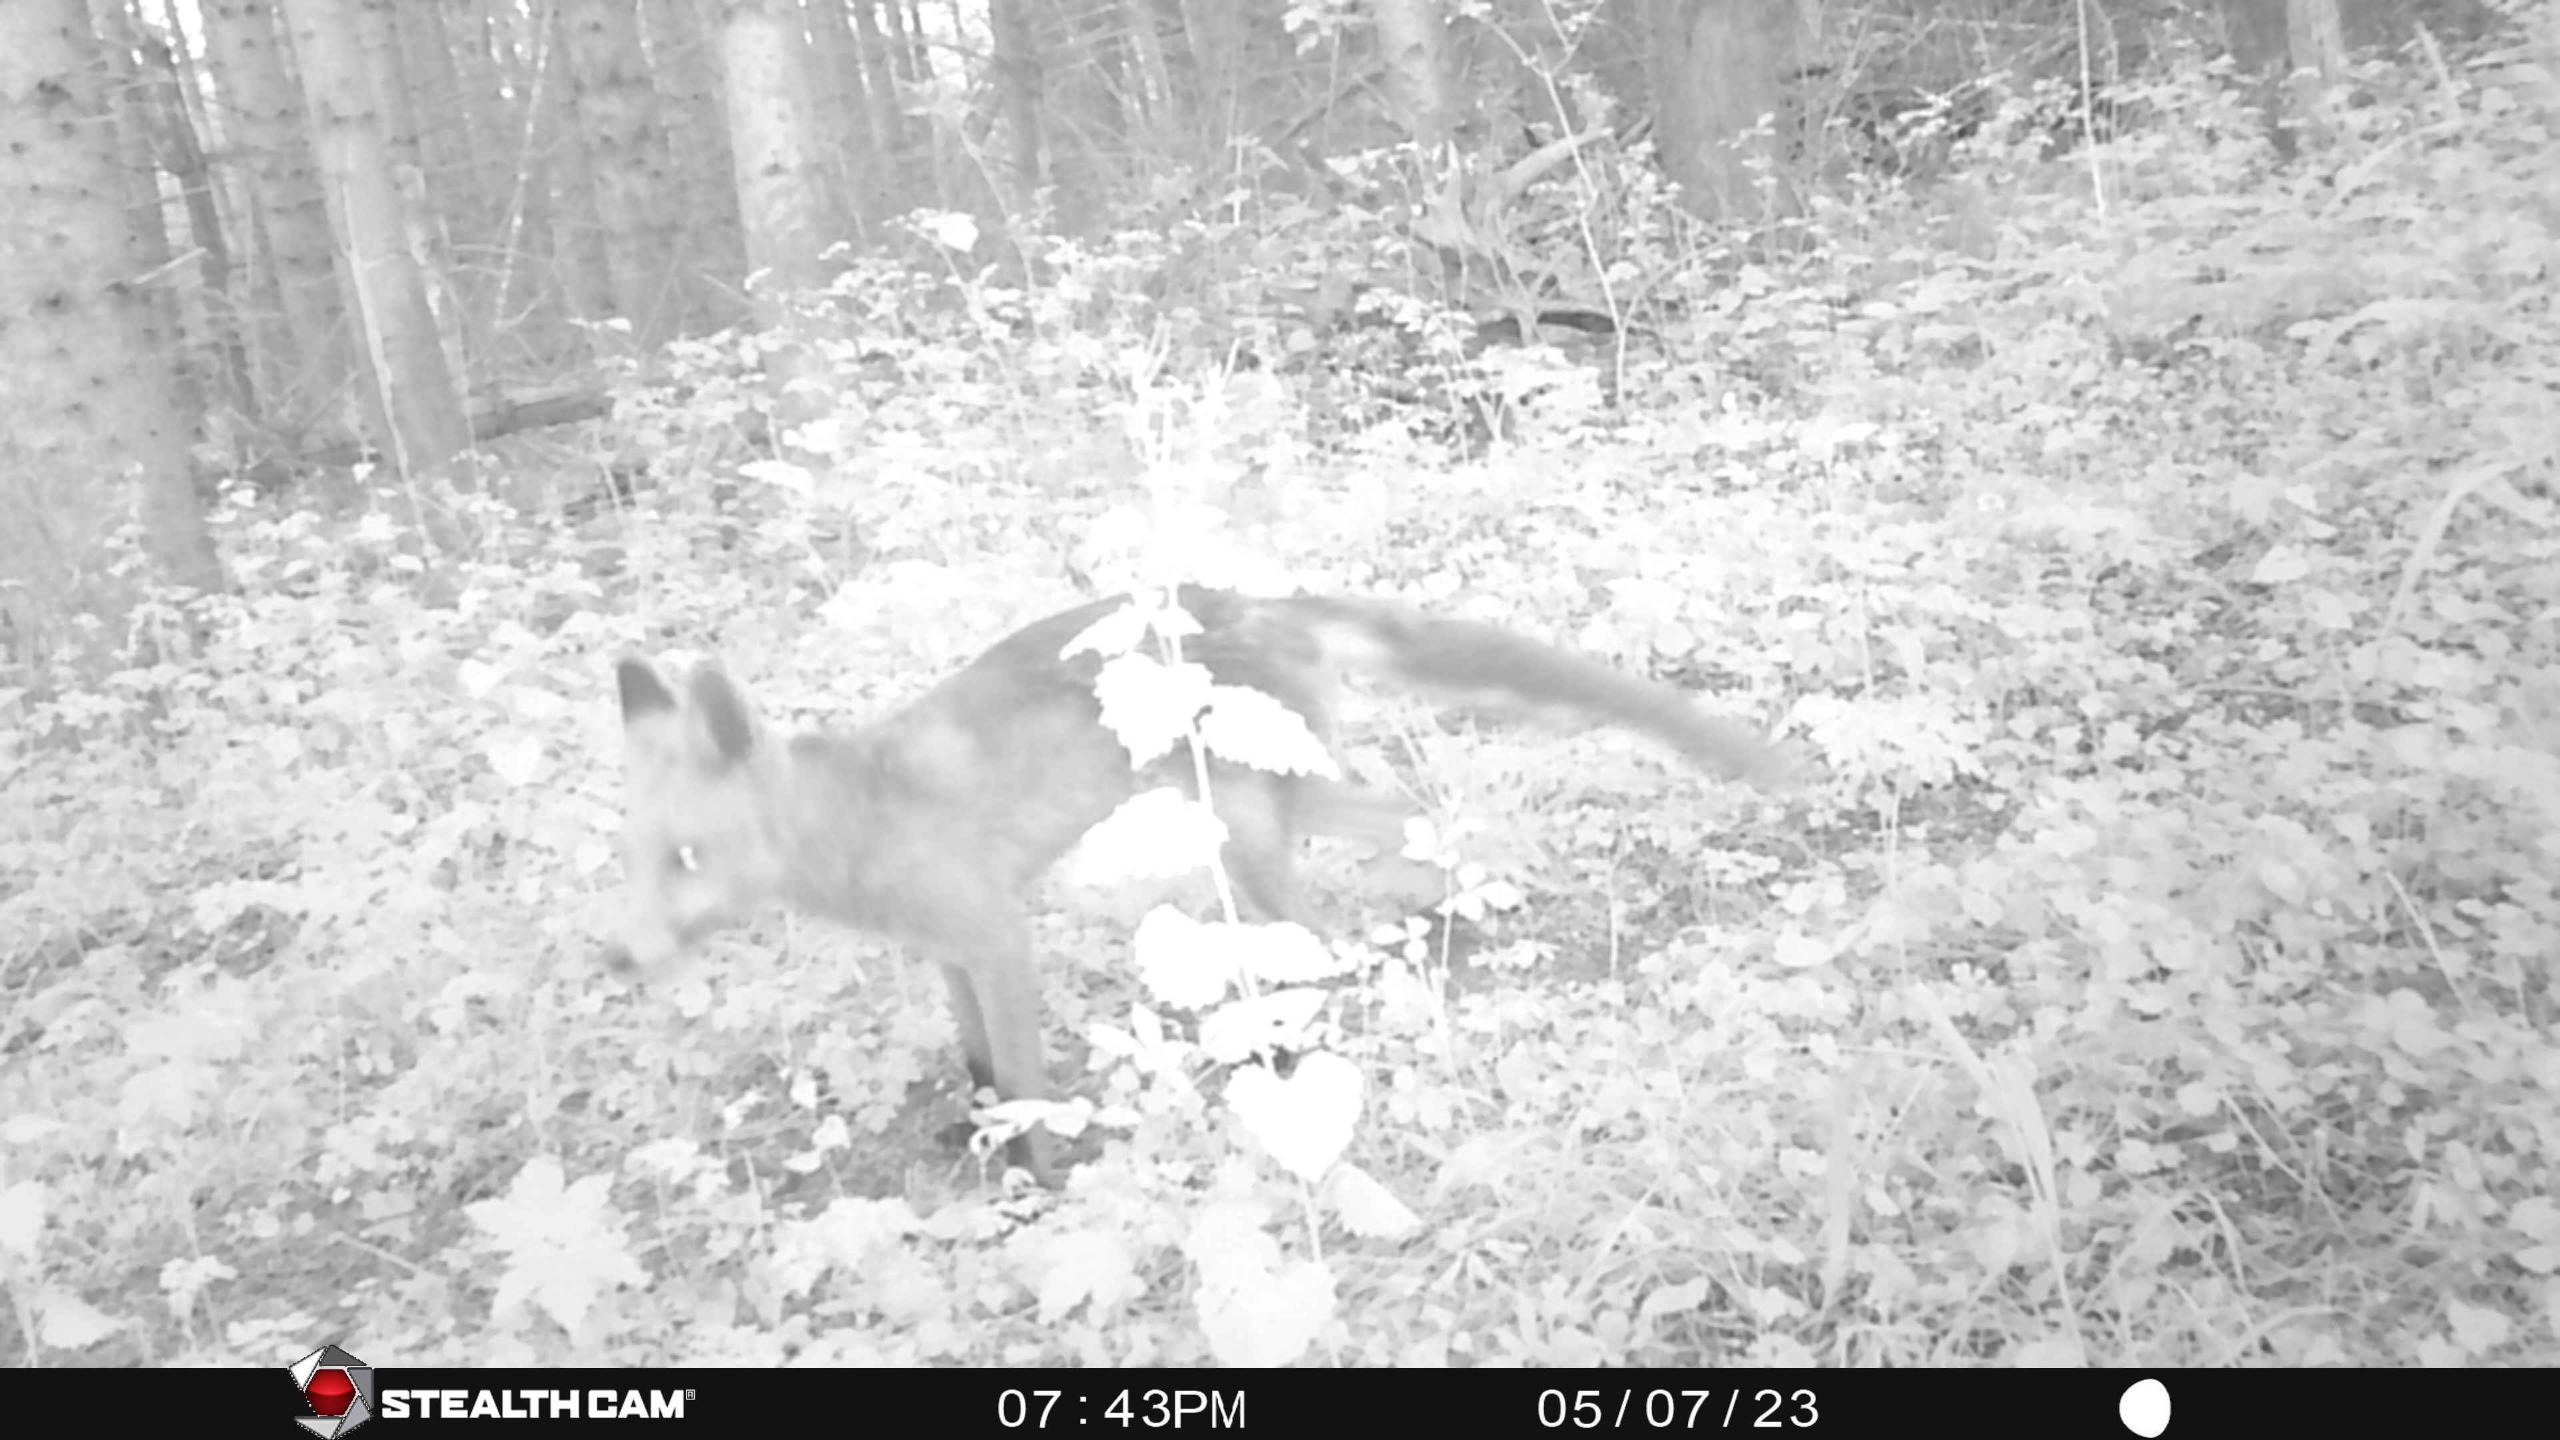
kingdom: Animalia
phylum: Chordata
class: Mammalia
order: Carnivora
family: Canidae
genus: Vulpes
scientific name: Vulpes vulpes
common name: Ræv
